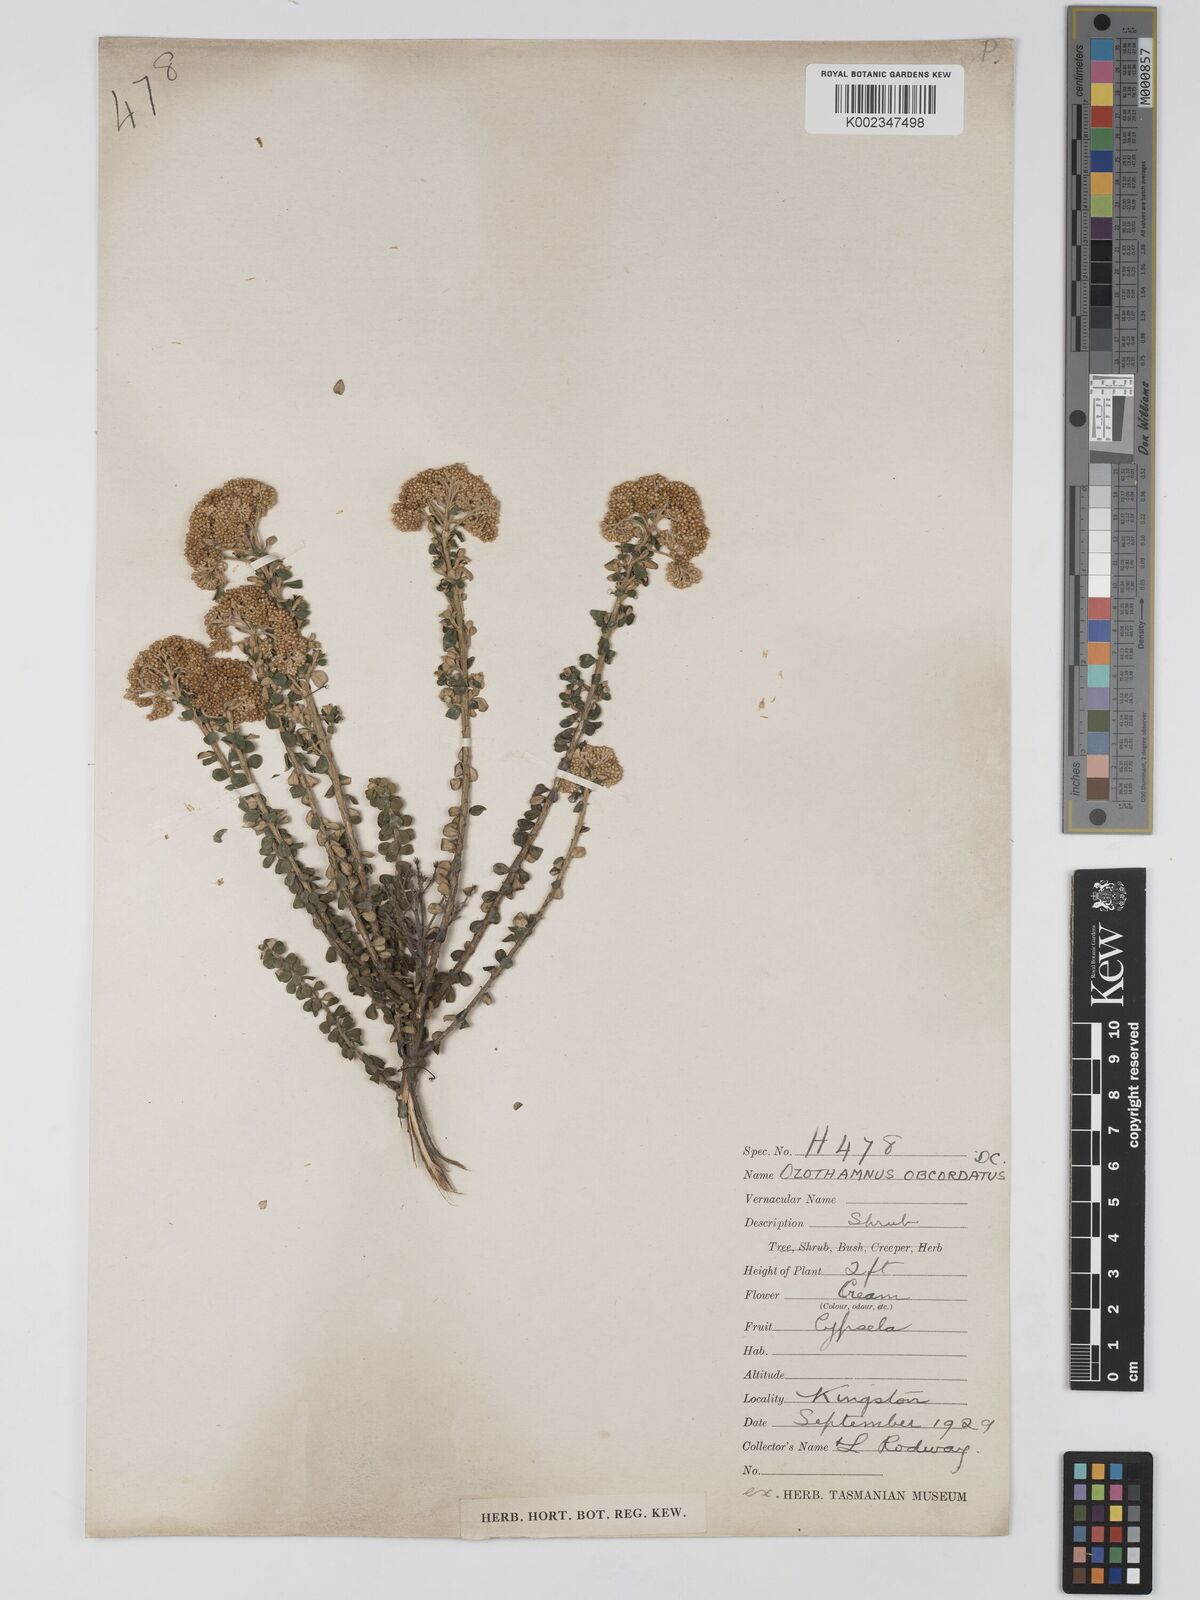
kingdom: Plantae
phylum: Tracheophyta
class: Magnoliopsida
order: Asterales
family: Asteraceae
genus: Ozothamnus
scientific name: Ozothamnus
